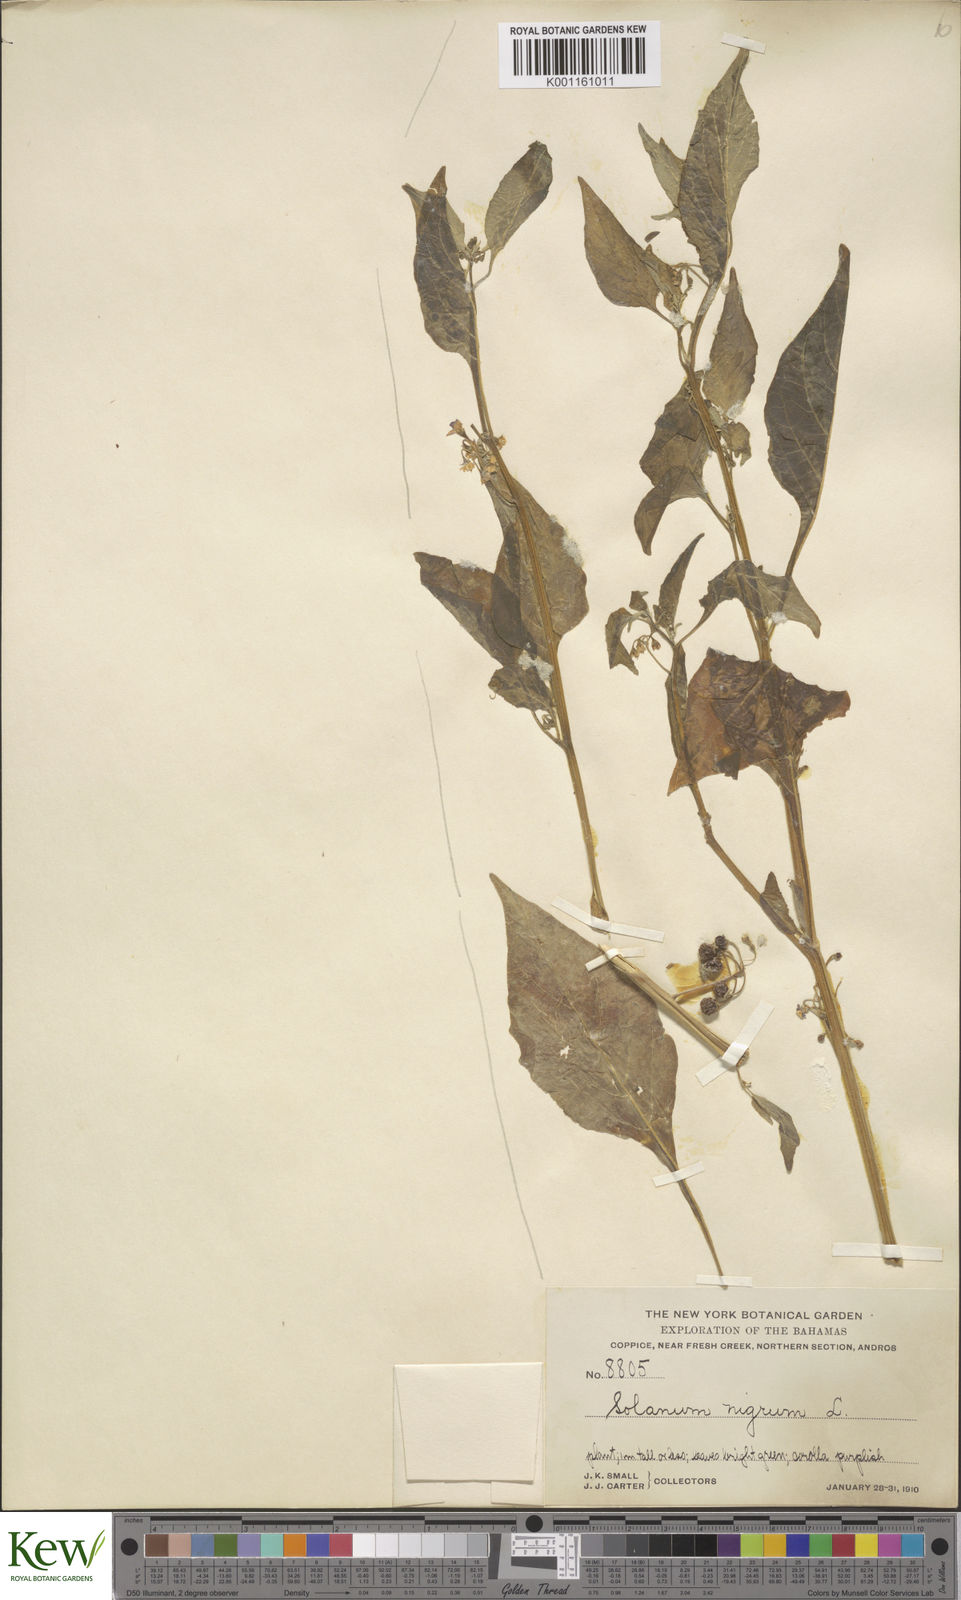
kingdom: Plantae
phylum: Tracheophyta
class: Magnoliopsida
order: Solanales
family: Solanaceae
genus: Solanum
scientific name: Solanum americanum
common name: American black nightshade
